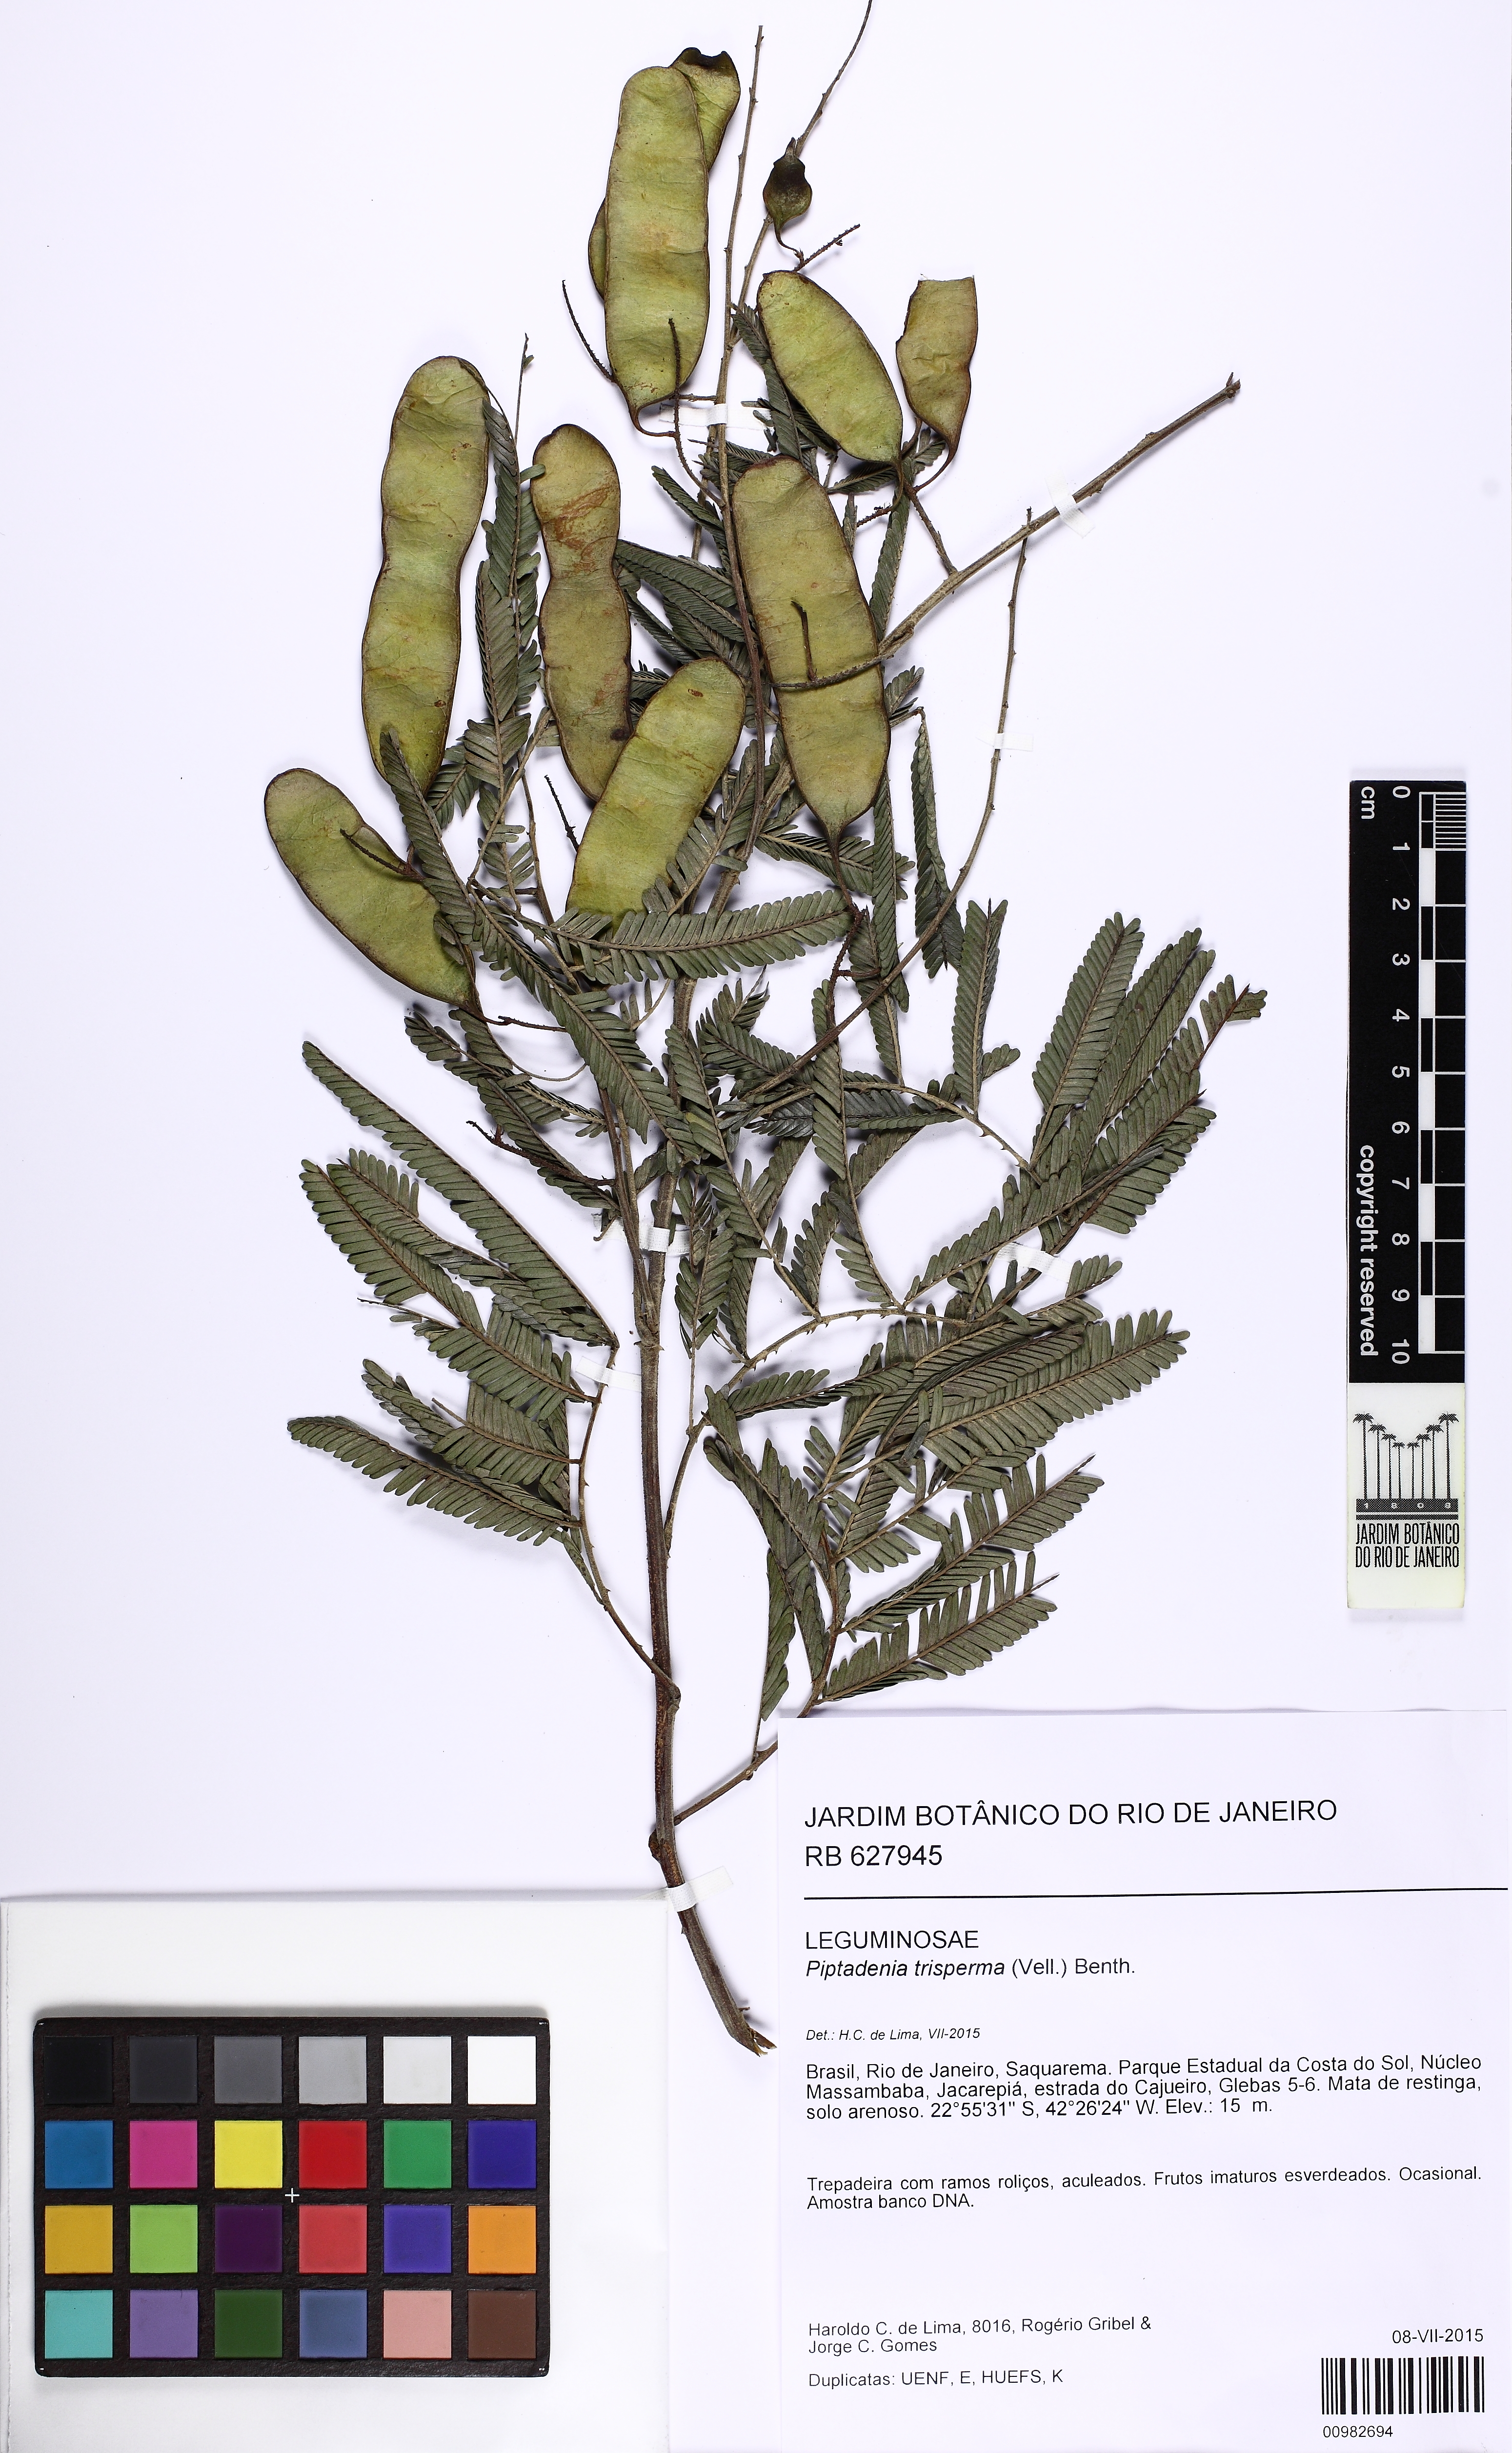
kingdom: Plantae
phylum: Tracheophyta
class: Magnoliopsida
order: Fabales
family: Fabaceae
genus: Piptadenia
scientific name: Piptadenia trisperma
